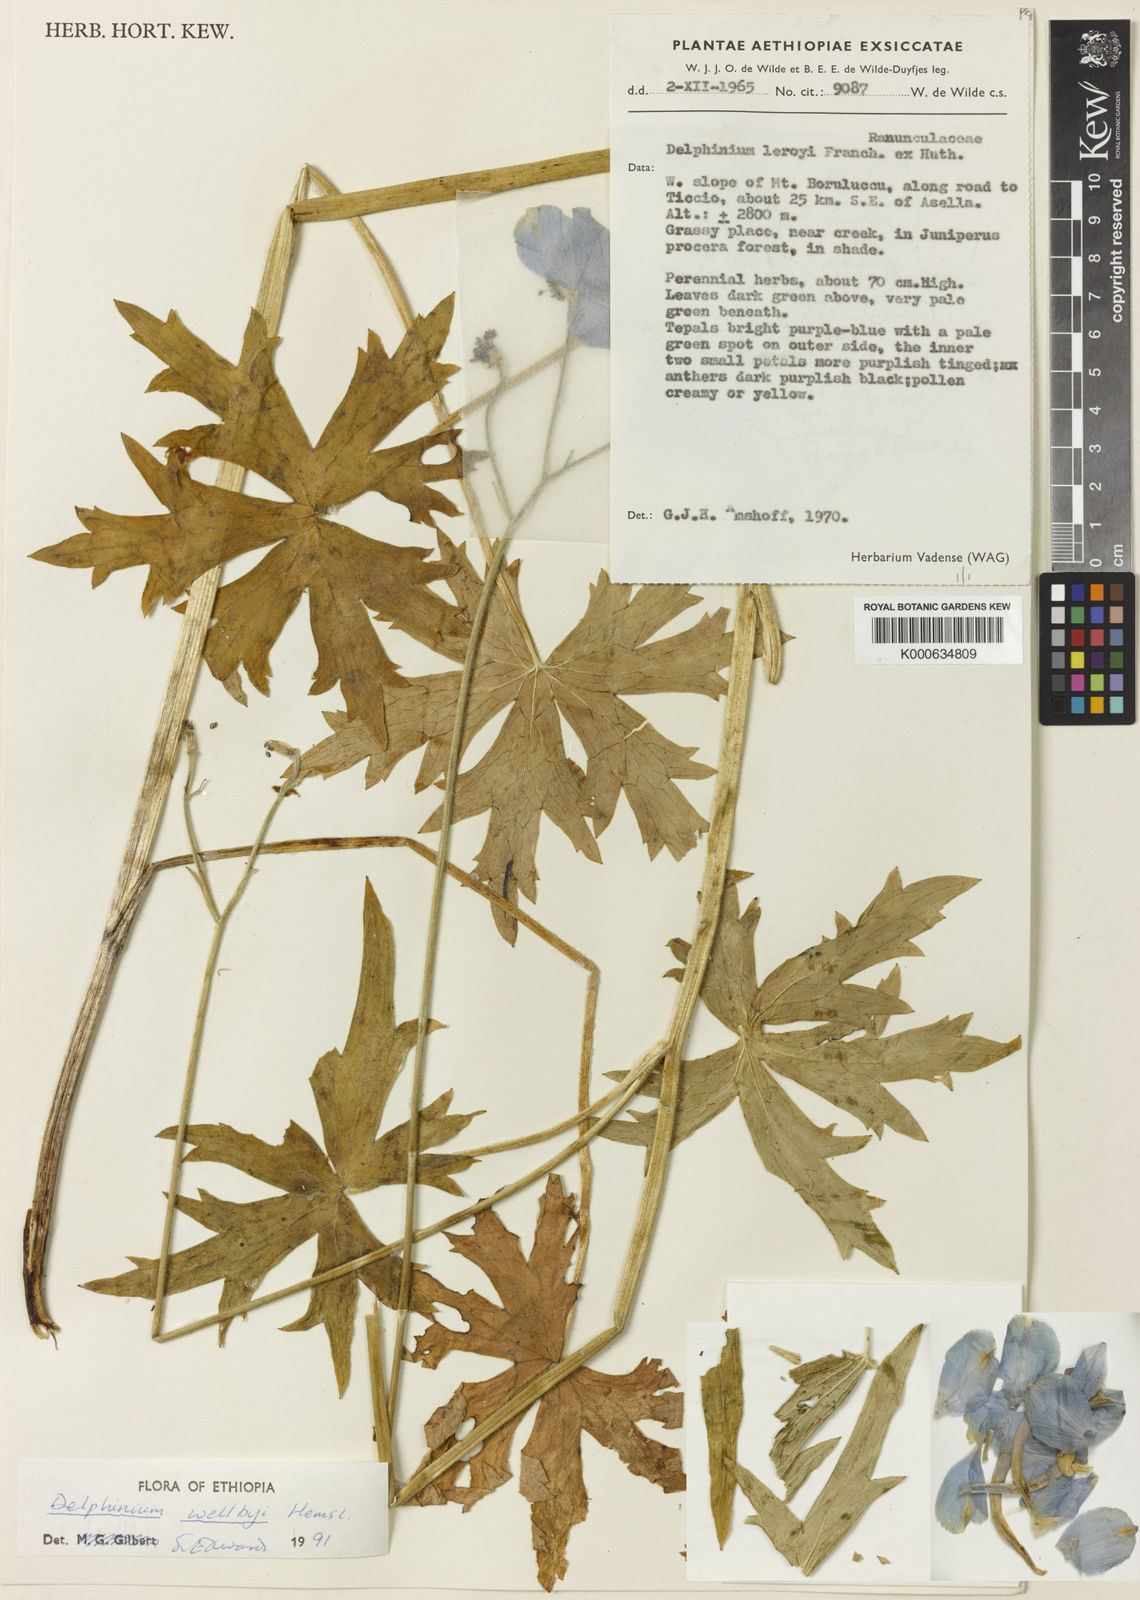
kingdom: Plantae
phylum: Tracheophyta
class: Magnoliopsida
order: Ranunculales
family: Ranunculaceae
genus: Delphinium
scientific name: Delphinium leroyi
